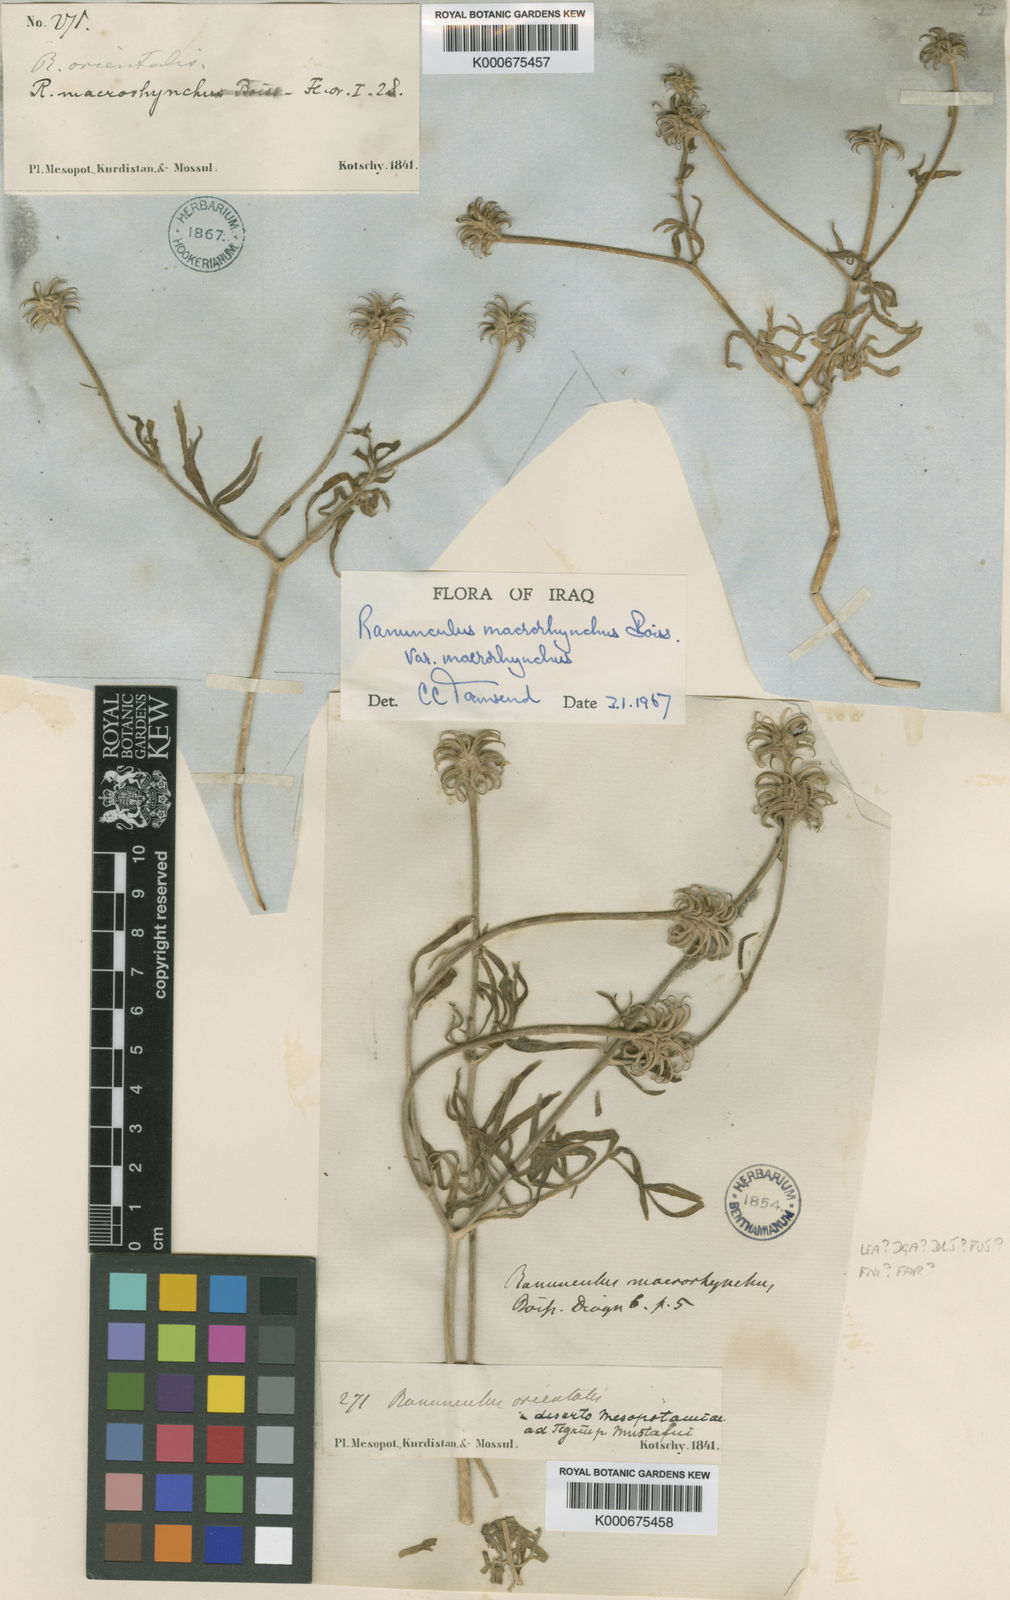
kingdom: Plantae
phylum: Tracheophyta
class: Magnoliopsida
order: Ranunculales
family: Ranunculaceae
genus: Ranunculus
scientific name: Ranunculus macrorrhynchus
